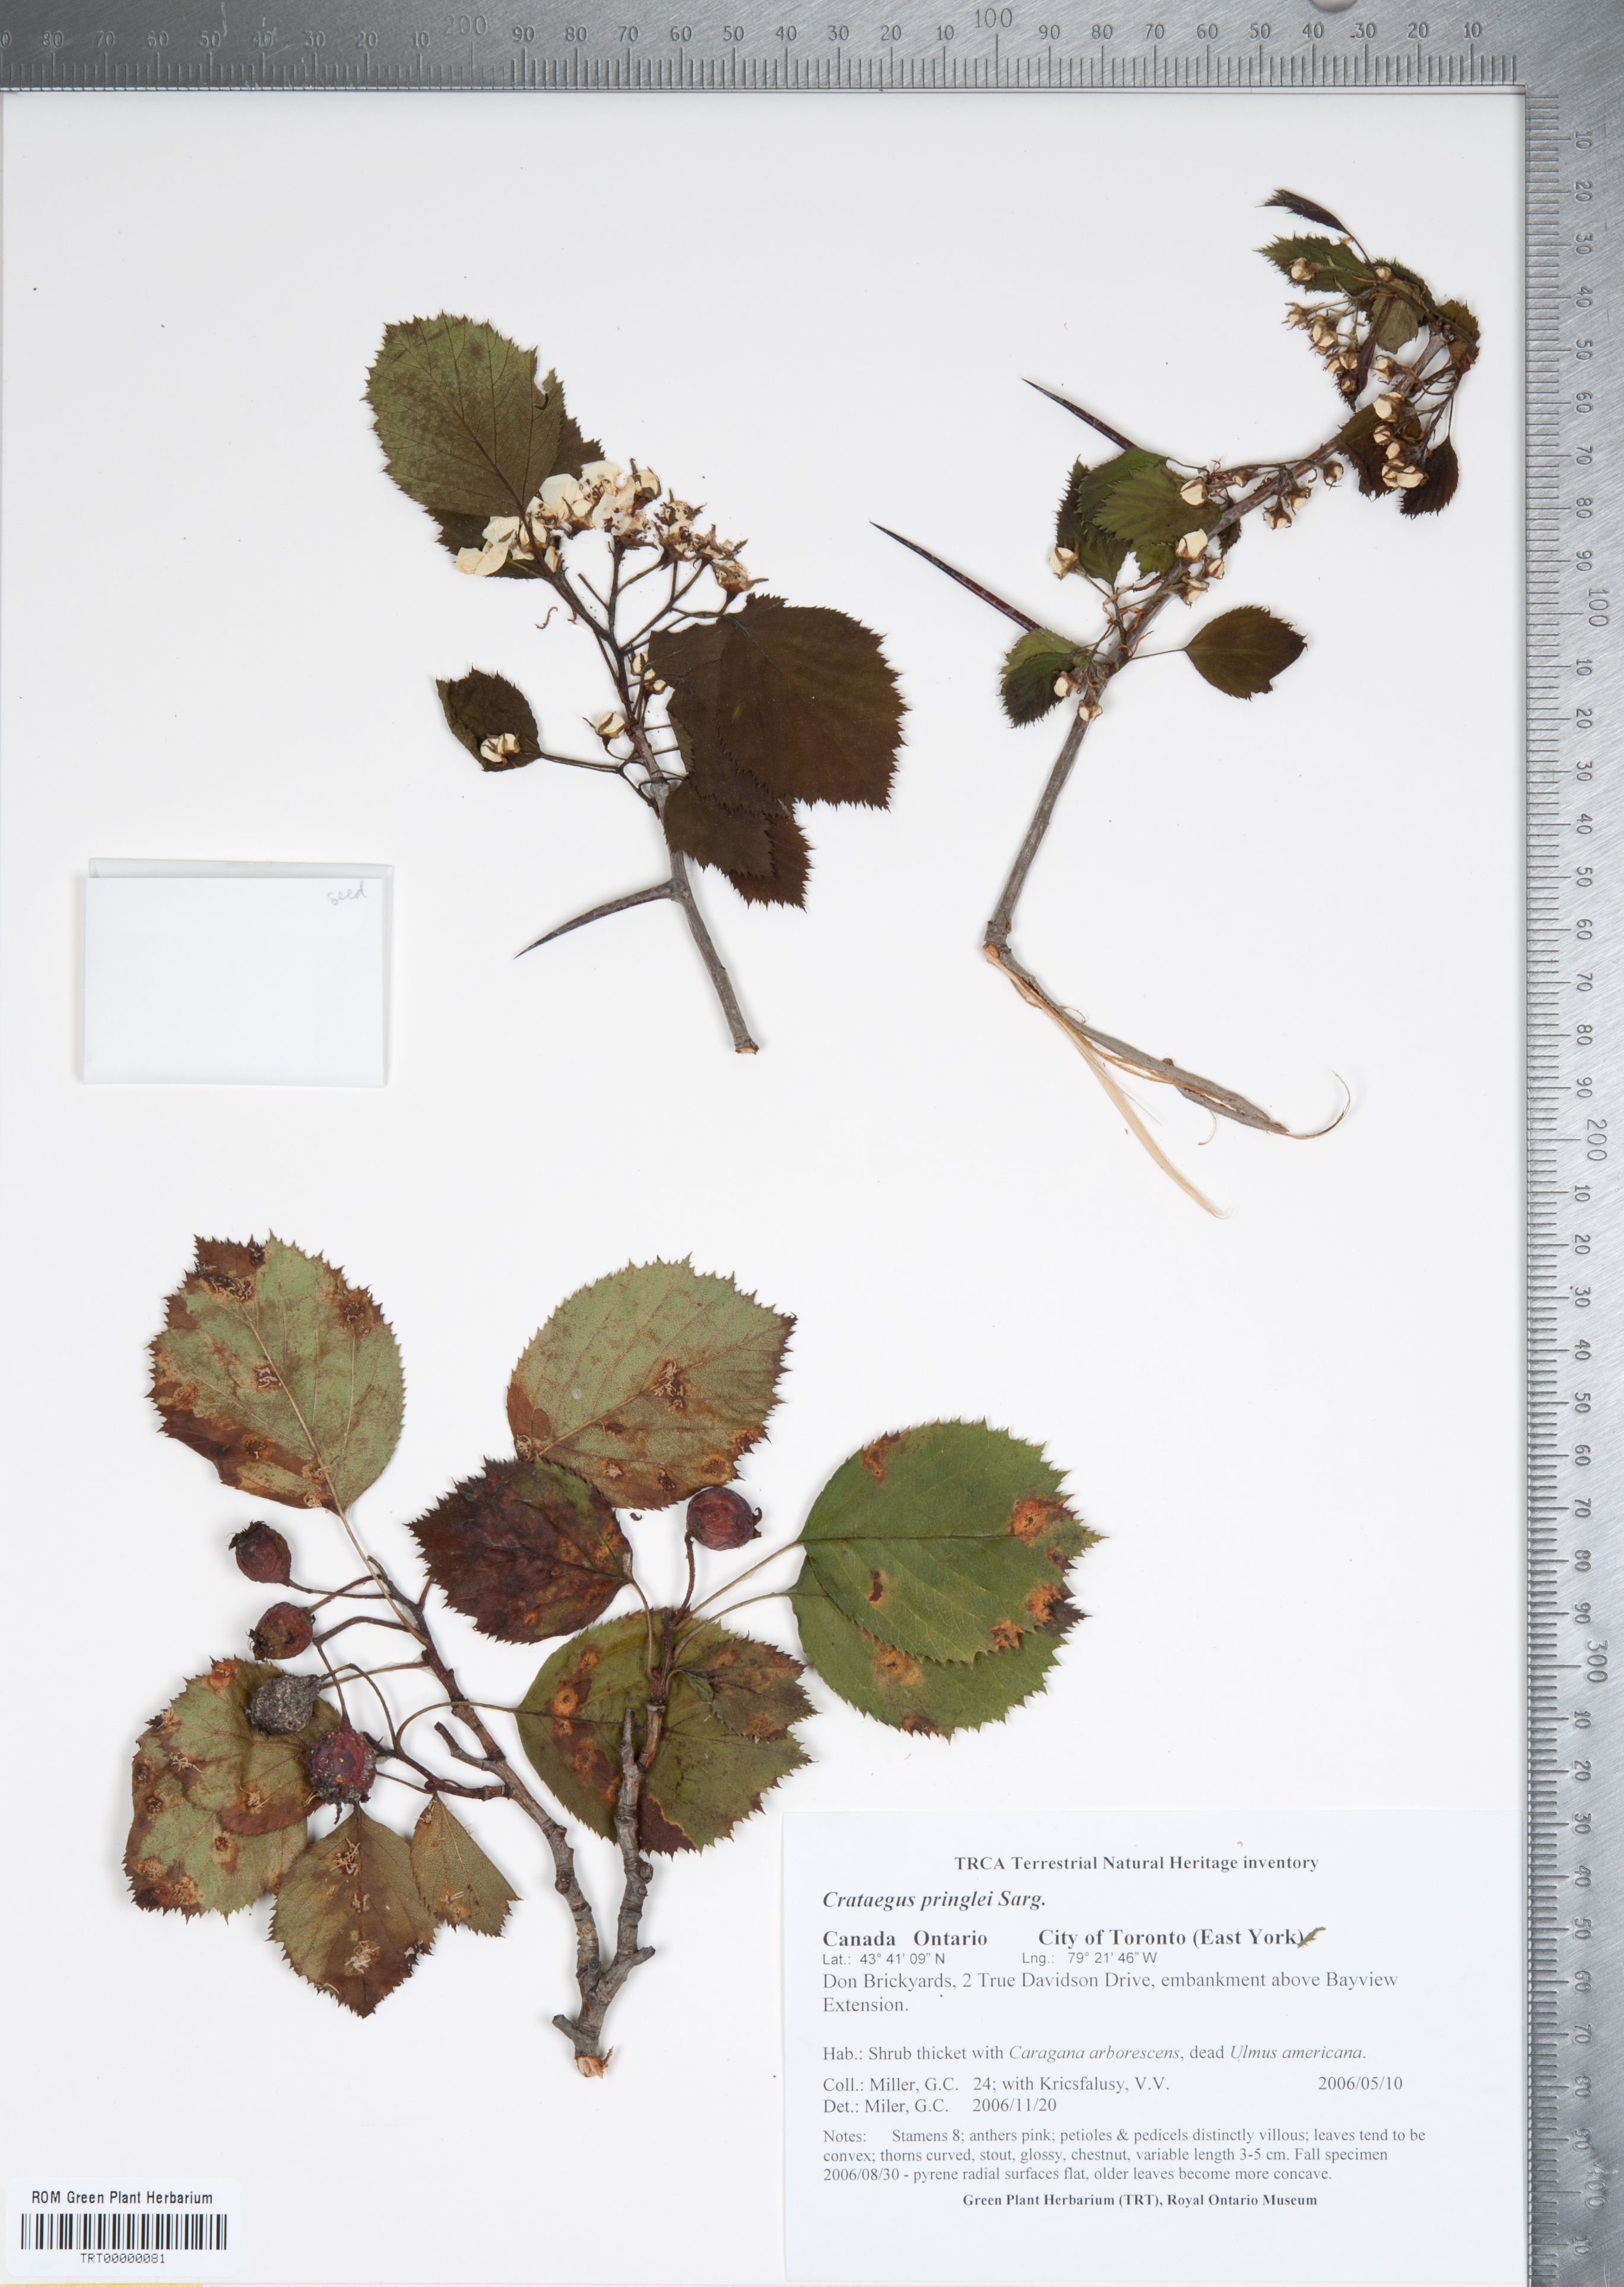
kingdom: Plantae
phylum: Tracheophyta
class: Magnoliopsida
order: Rosales
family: Rosaceae
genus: Crataegus
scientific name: Crataegus coccinea
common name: Scarlet hawthorn
